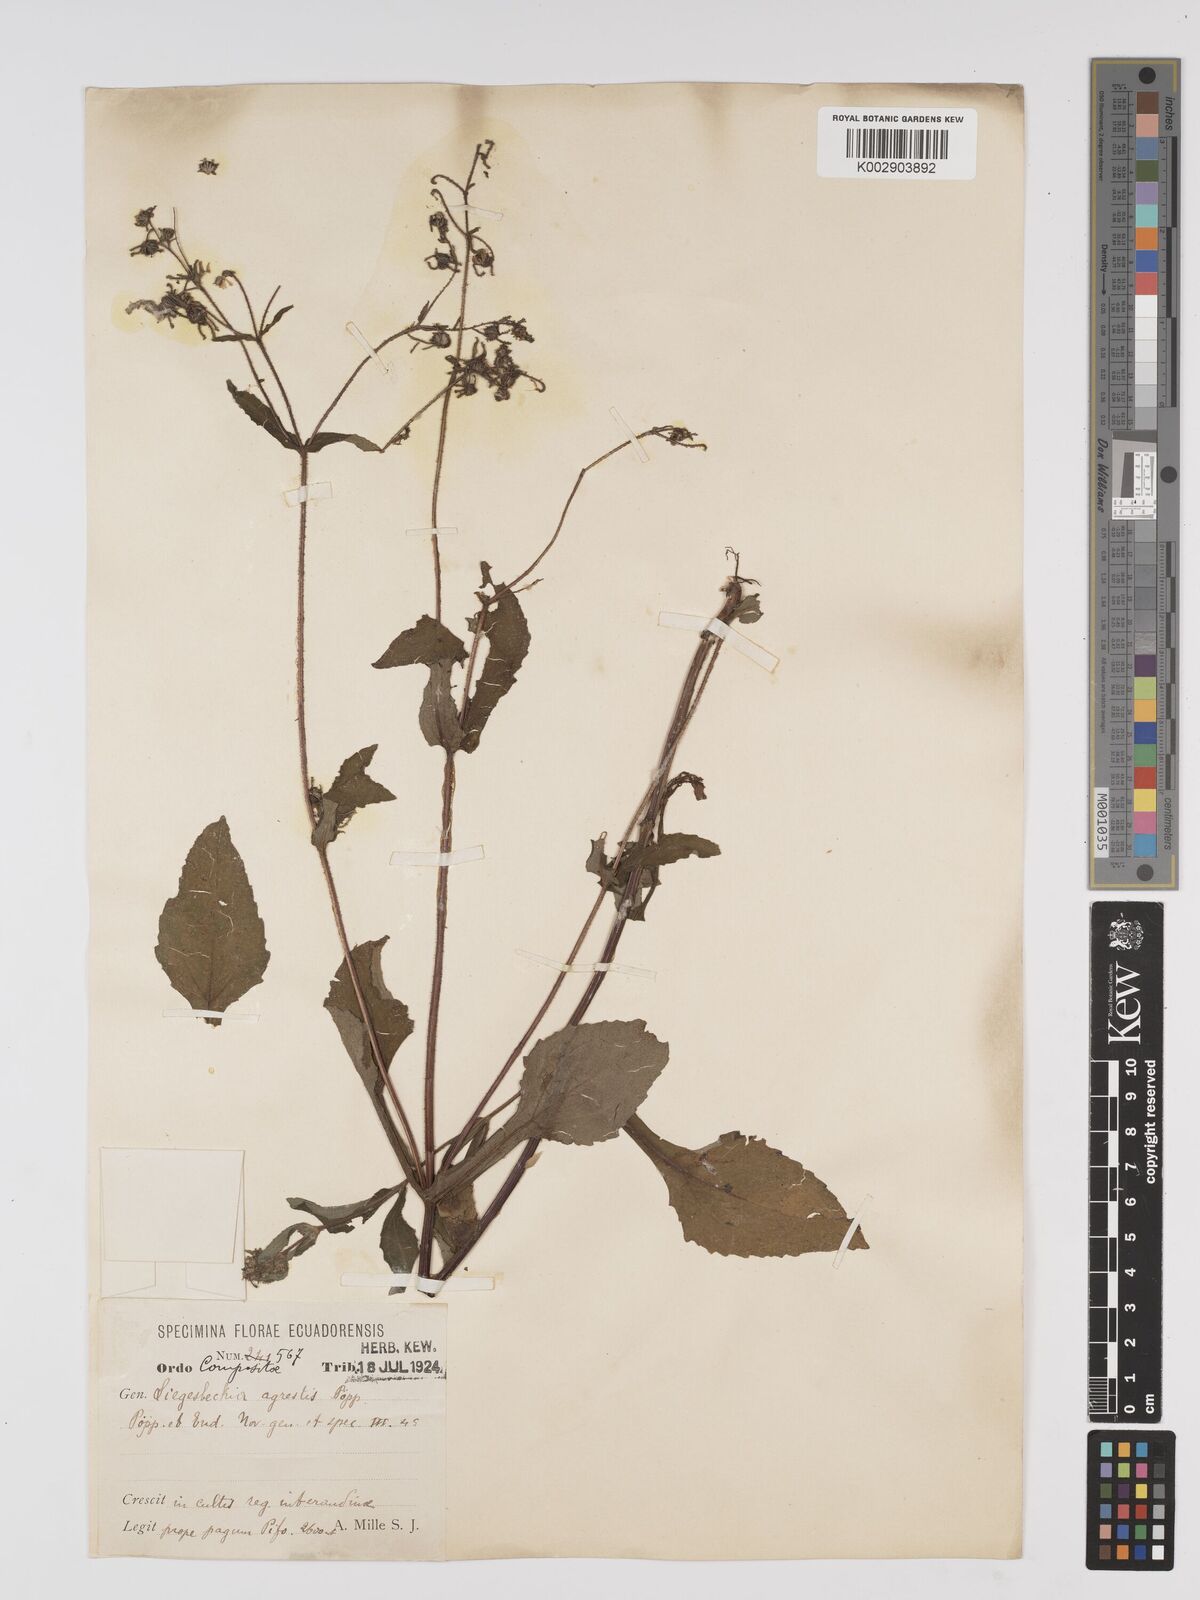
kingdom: Plantae
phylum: Tracheophyta
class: Magnoliopsida
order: Asterales
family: Asteraceae
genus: Sigesbeckia
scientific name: Sigesbeckia agrestis
